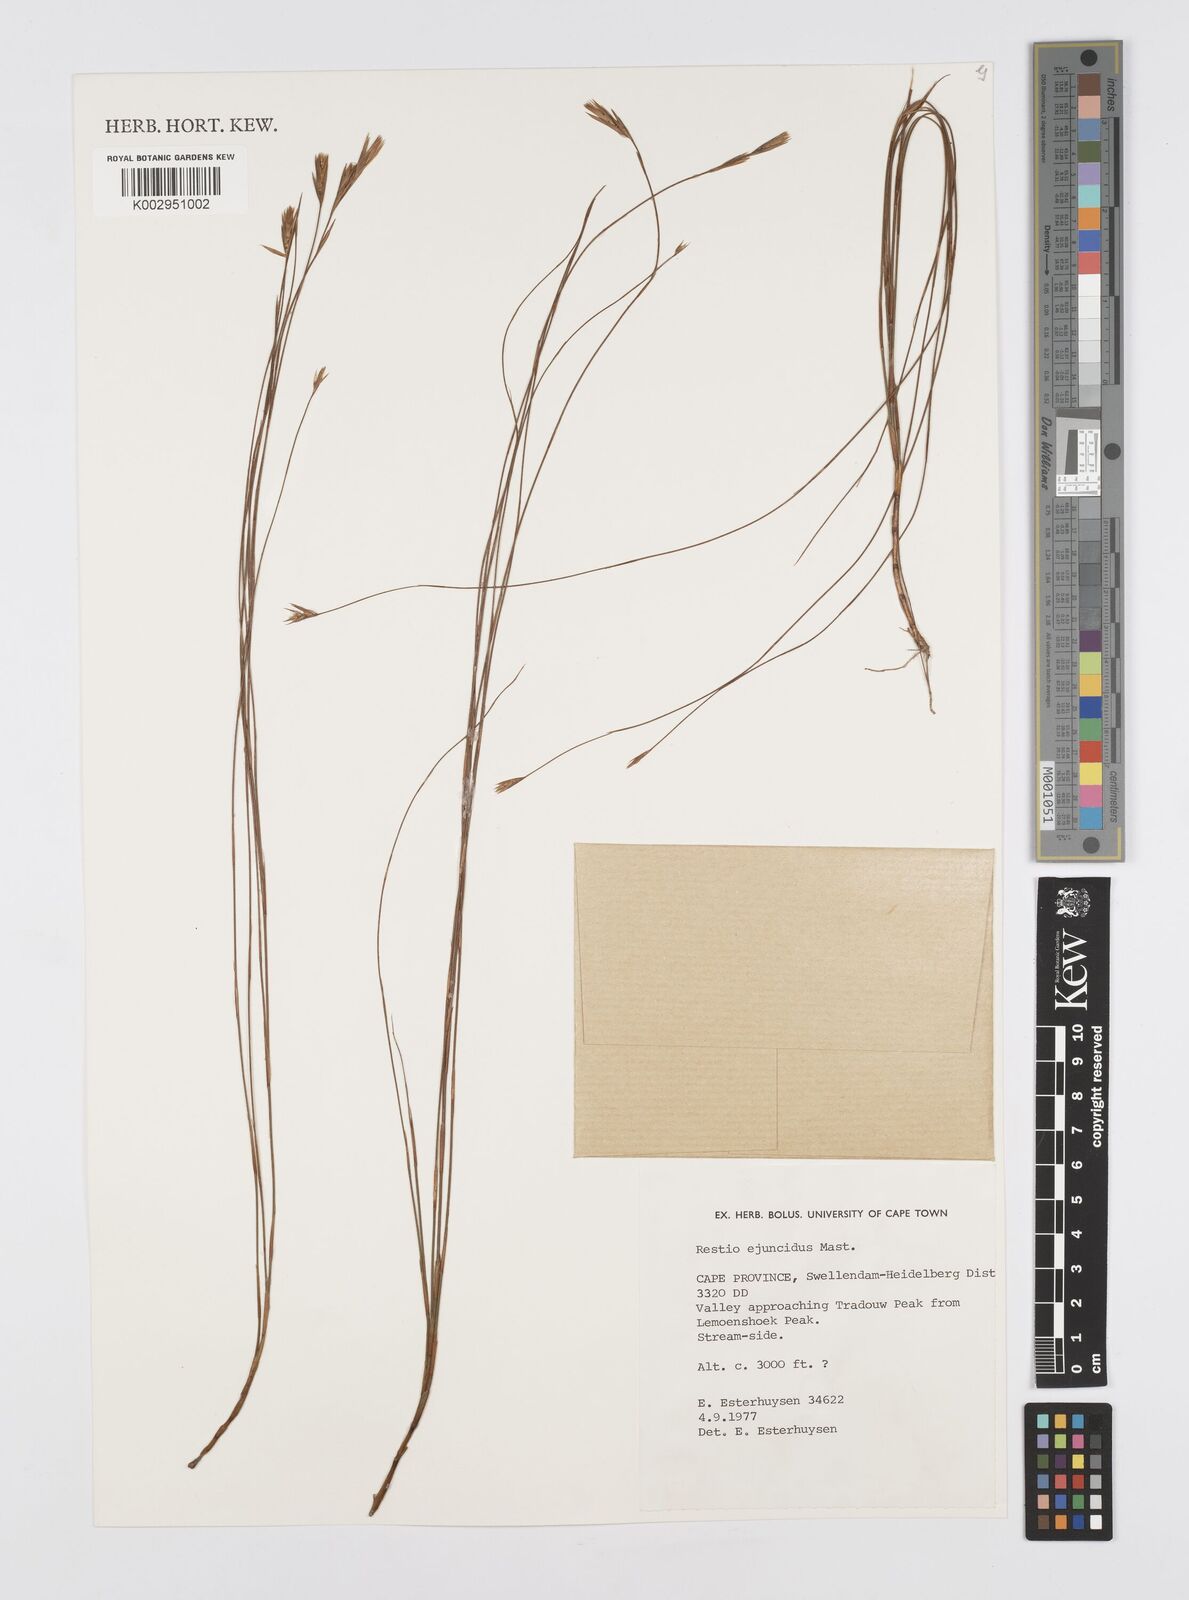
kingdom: Plantae
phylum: Tracheophyta
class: Liliopsida
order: Poales
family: Restionaceae
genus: Restio
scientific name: Restio ejuncidus
